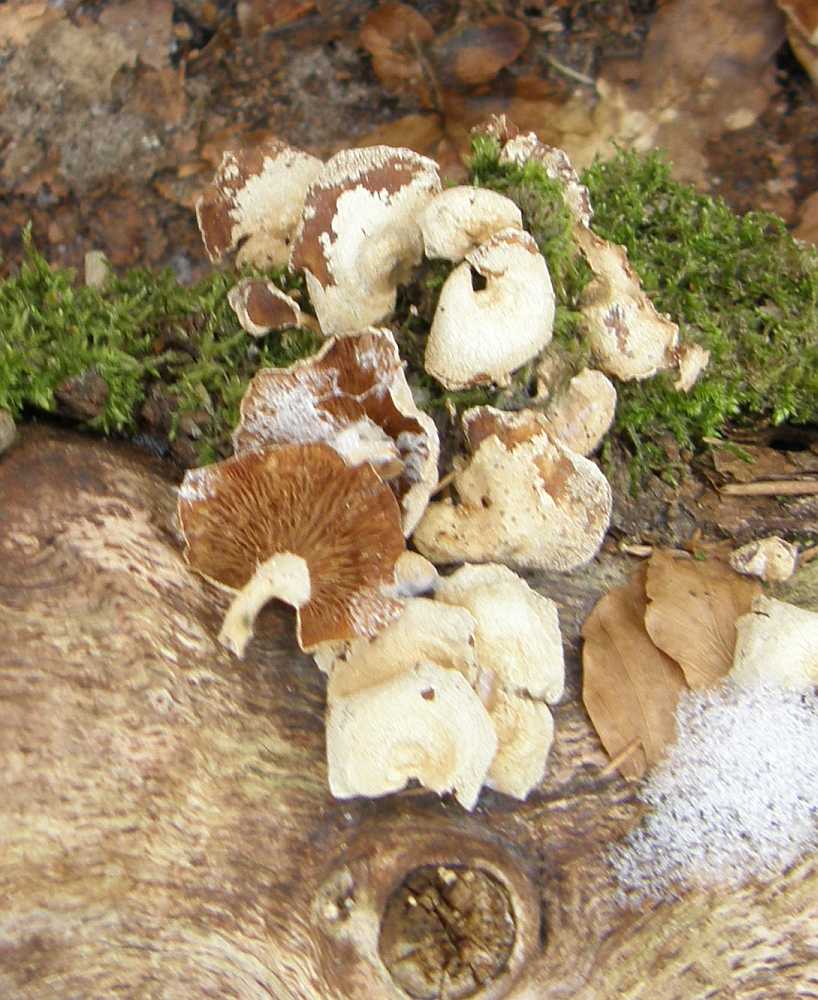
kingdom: Fungi
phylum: Basidiomycota
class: Agaricomycetes
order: Agaricales
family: Mycenaceae
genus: Panellus
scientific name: Panellus stipticus
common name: kliddet epaulethat
